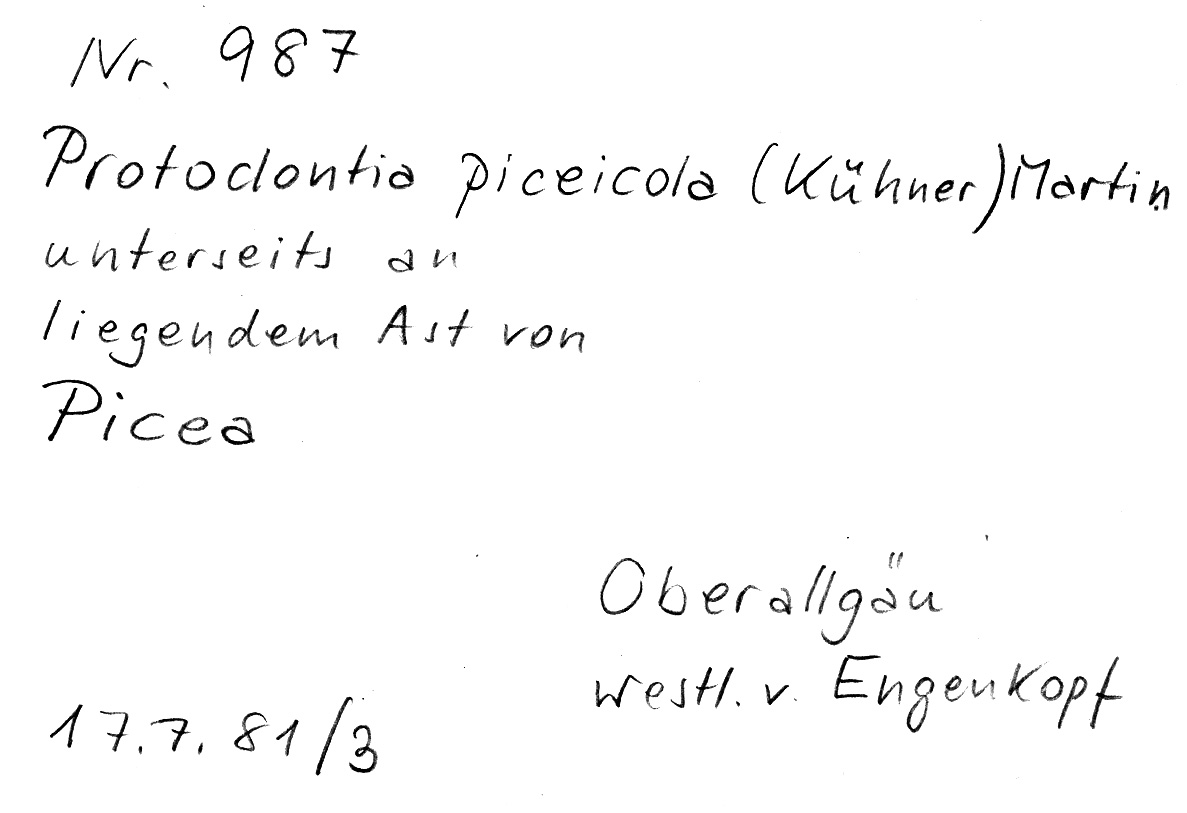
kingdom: Fungi
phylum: Basidiomycota
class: Agaricomycetes
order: Auriculariales
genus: Protodontia
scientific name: Protodontia piceicola
